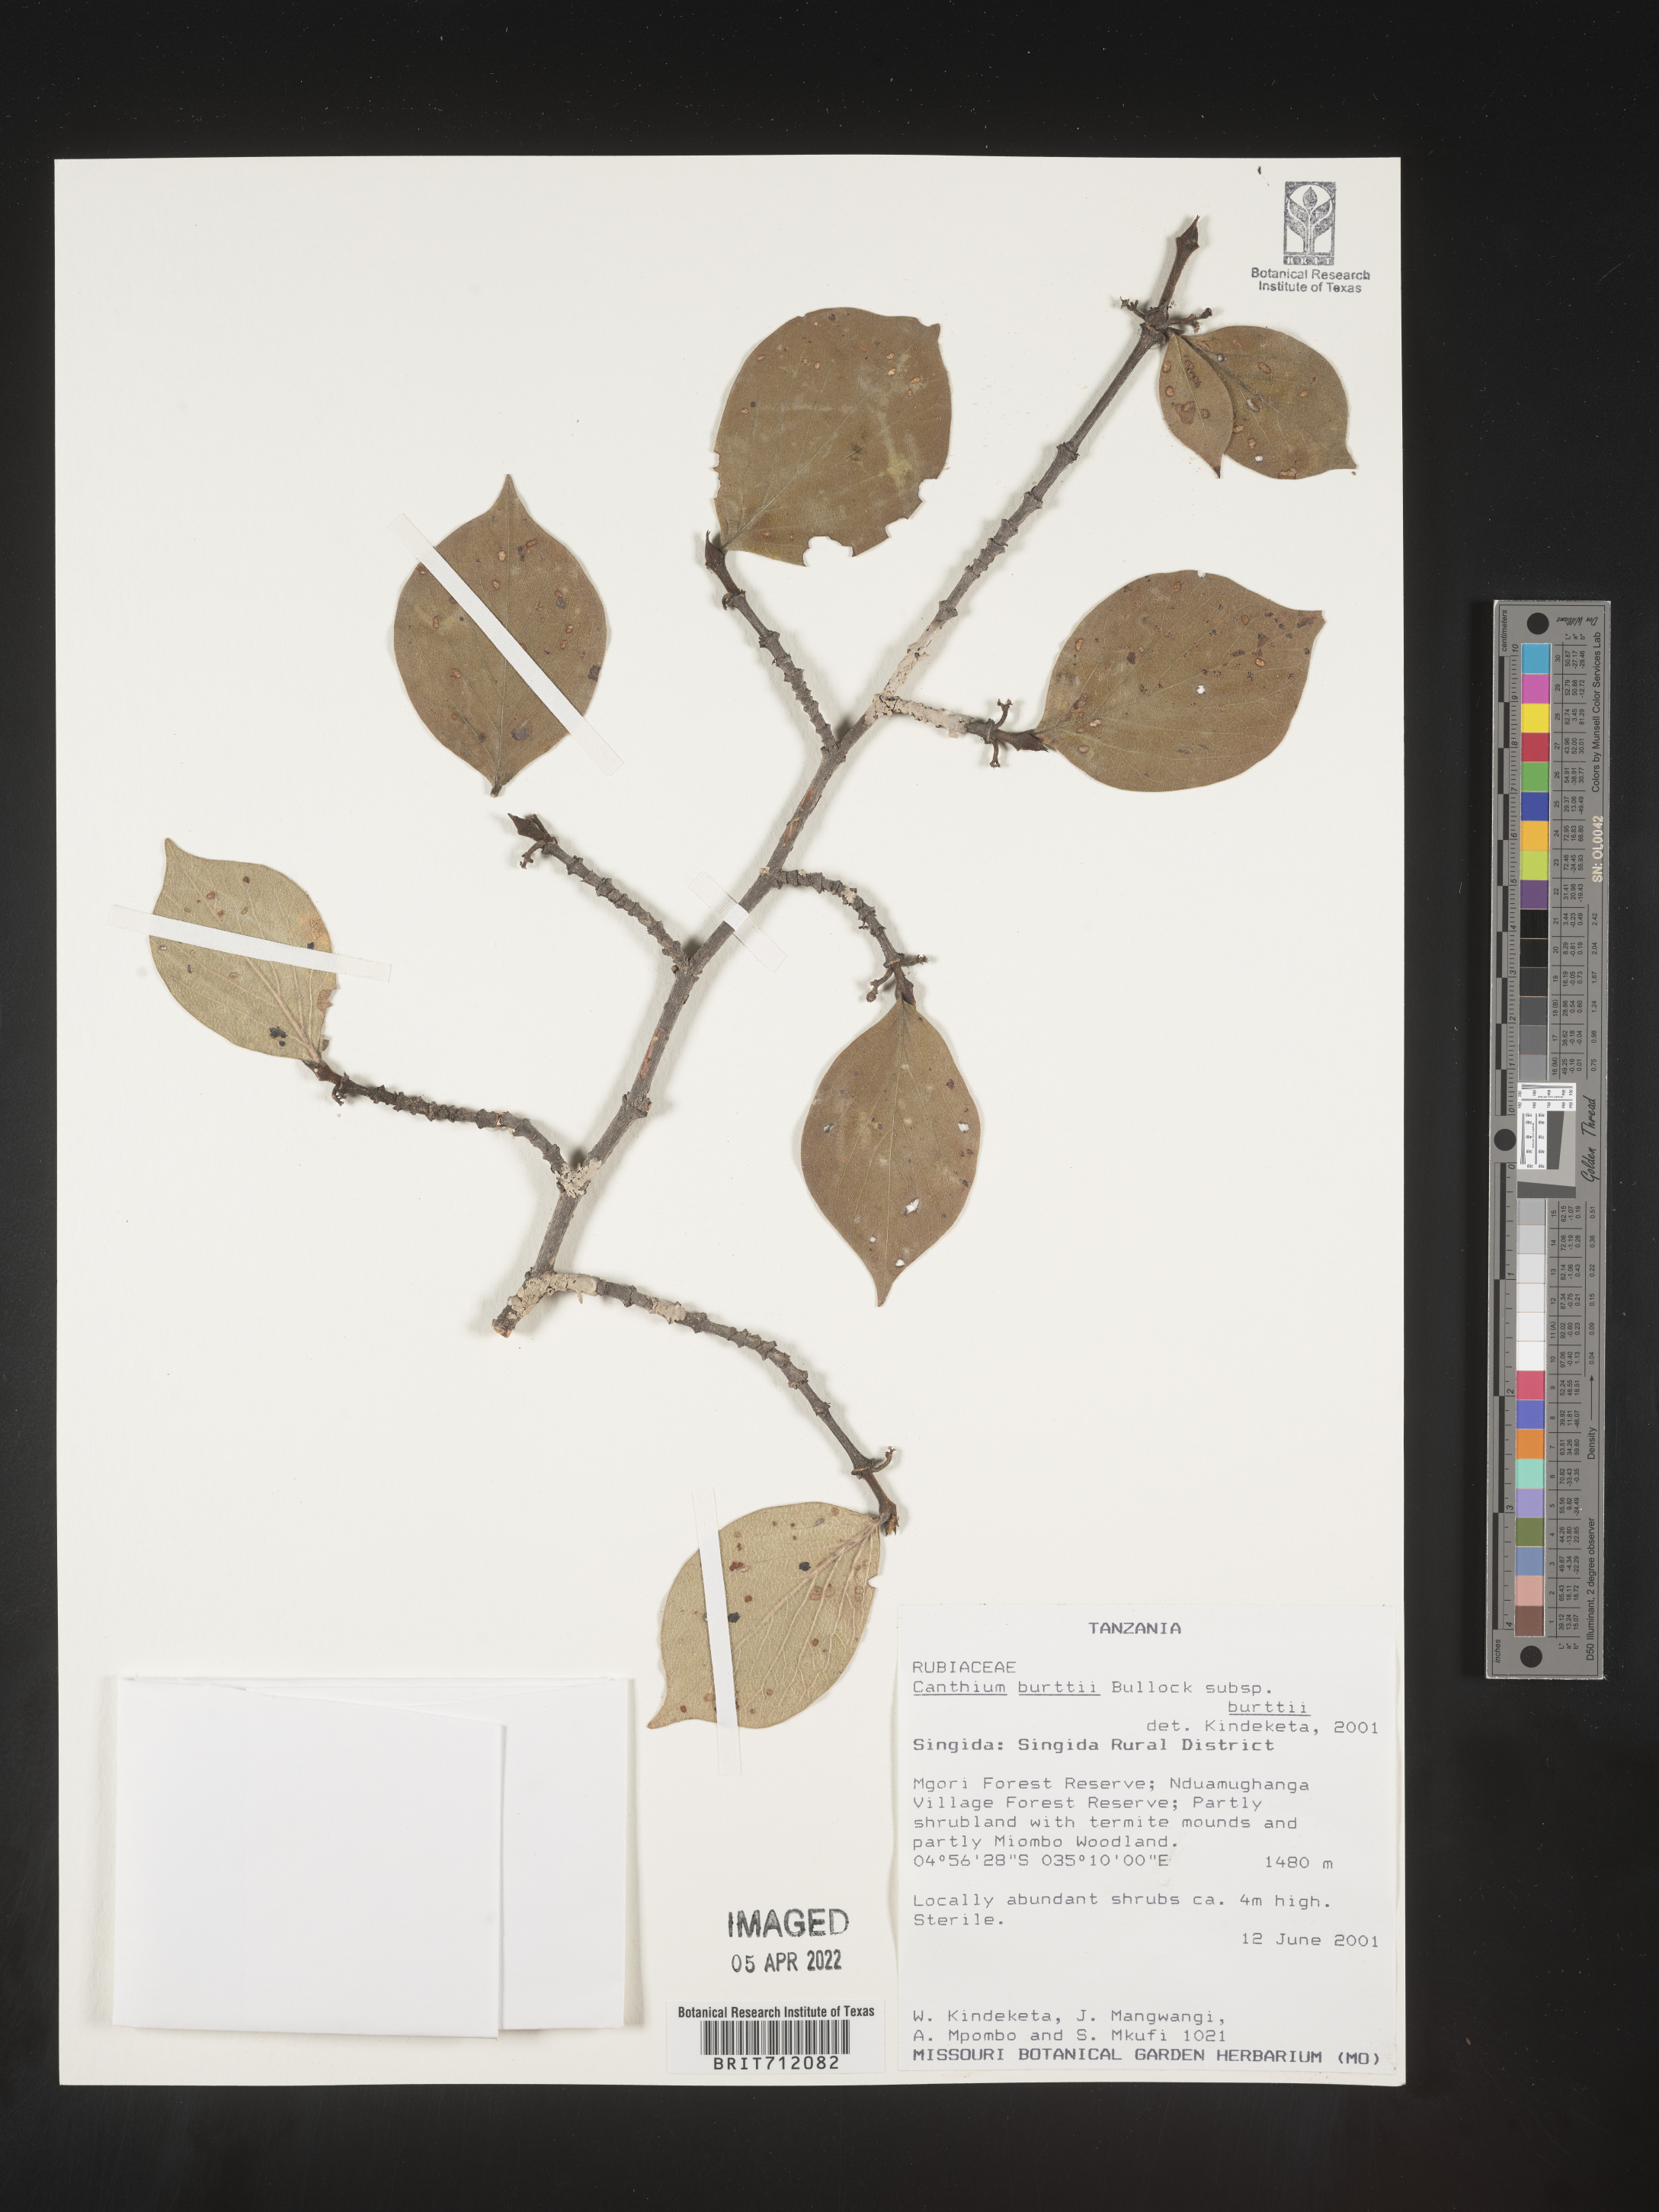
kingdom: Plantae
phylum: Tracheophyta
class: Magnoliopsida
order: Gentianales
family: Rubiaceae
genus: Canthium
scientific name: Canthium
